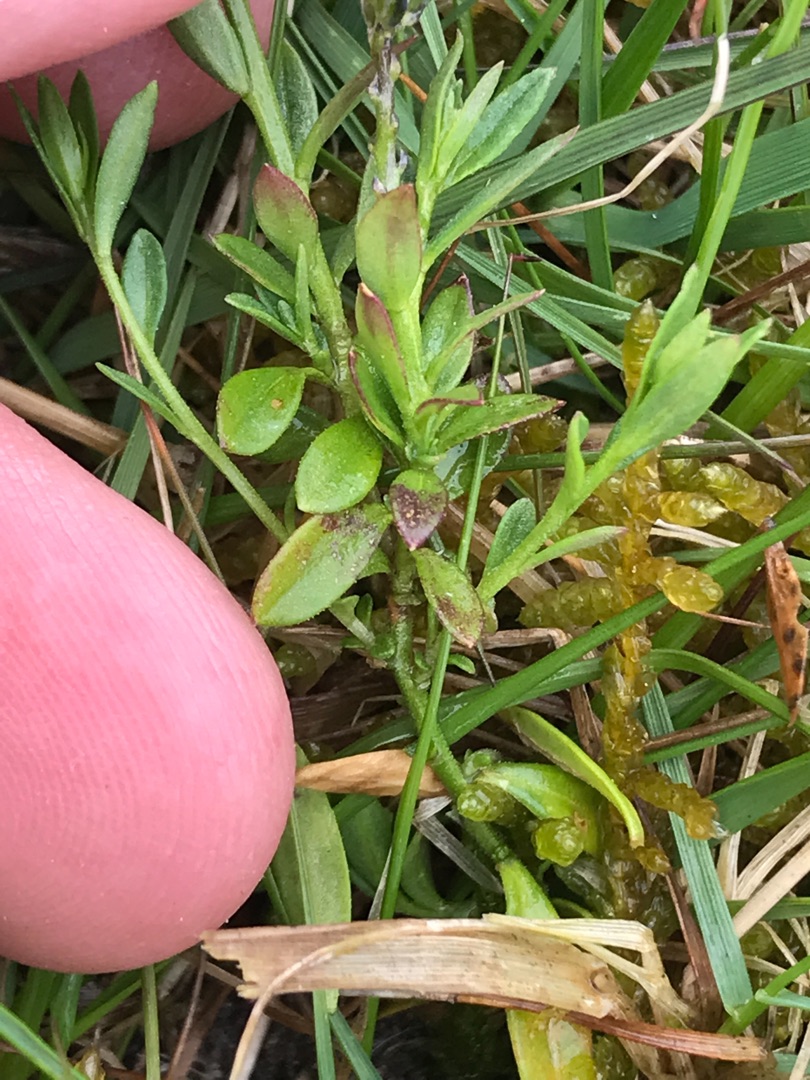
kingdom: Plantae
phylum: Tracheophyta
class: Magnoliopsida
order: Fabales
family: Polygalaceae
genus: Polygala
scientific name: Polygala vulgaris
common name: Almindelig mælkeurt
